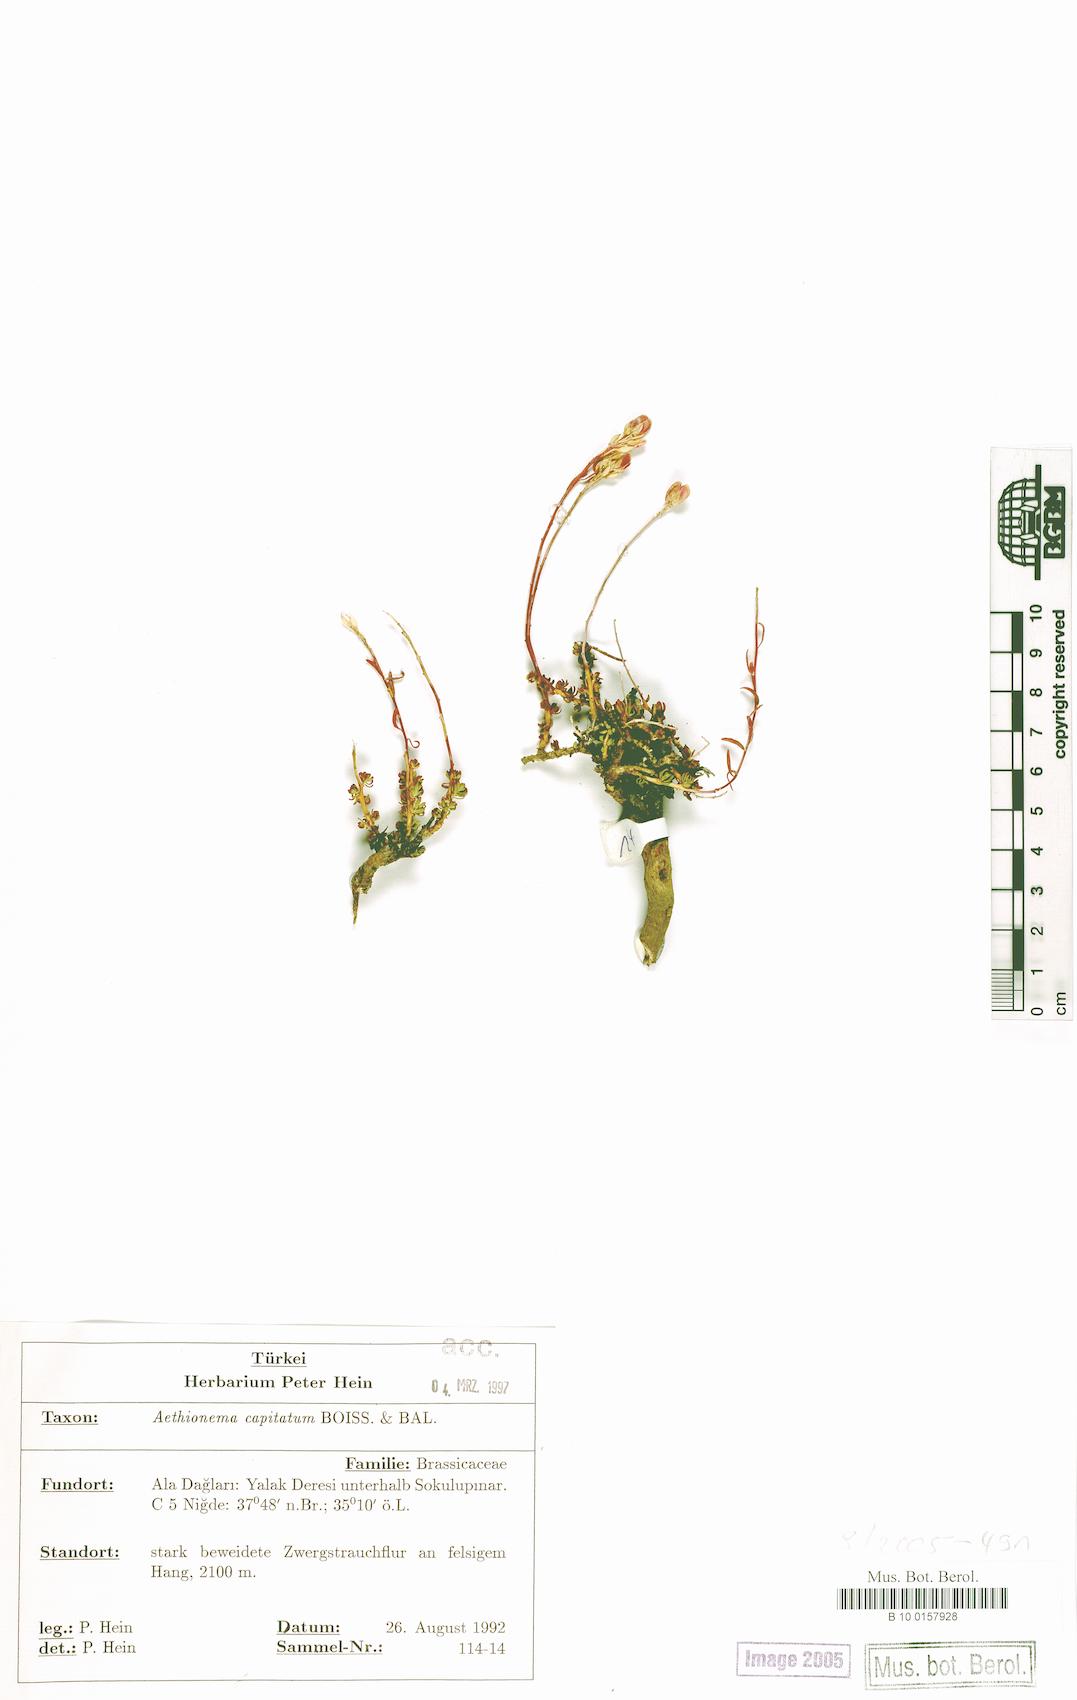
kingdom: Plantae
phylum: Tracheophyta
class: Magnoliopsida
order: Brassicales
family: Brassicaceae
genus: Aethionema
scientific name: Aethionema capitatum
